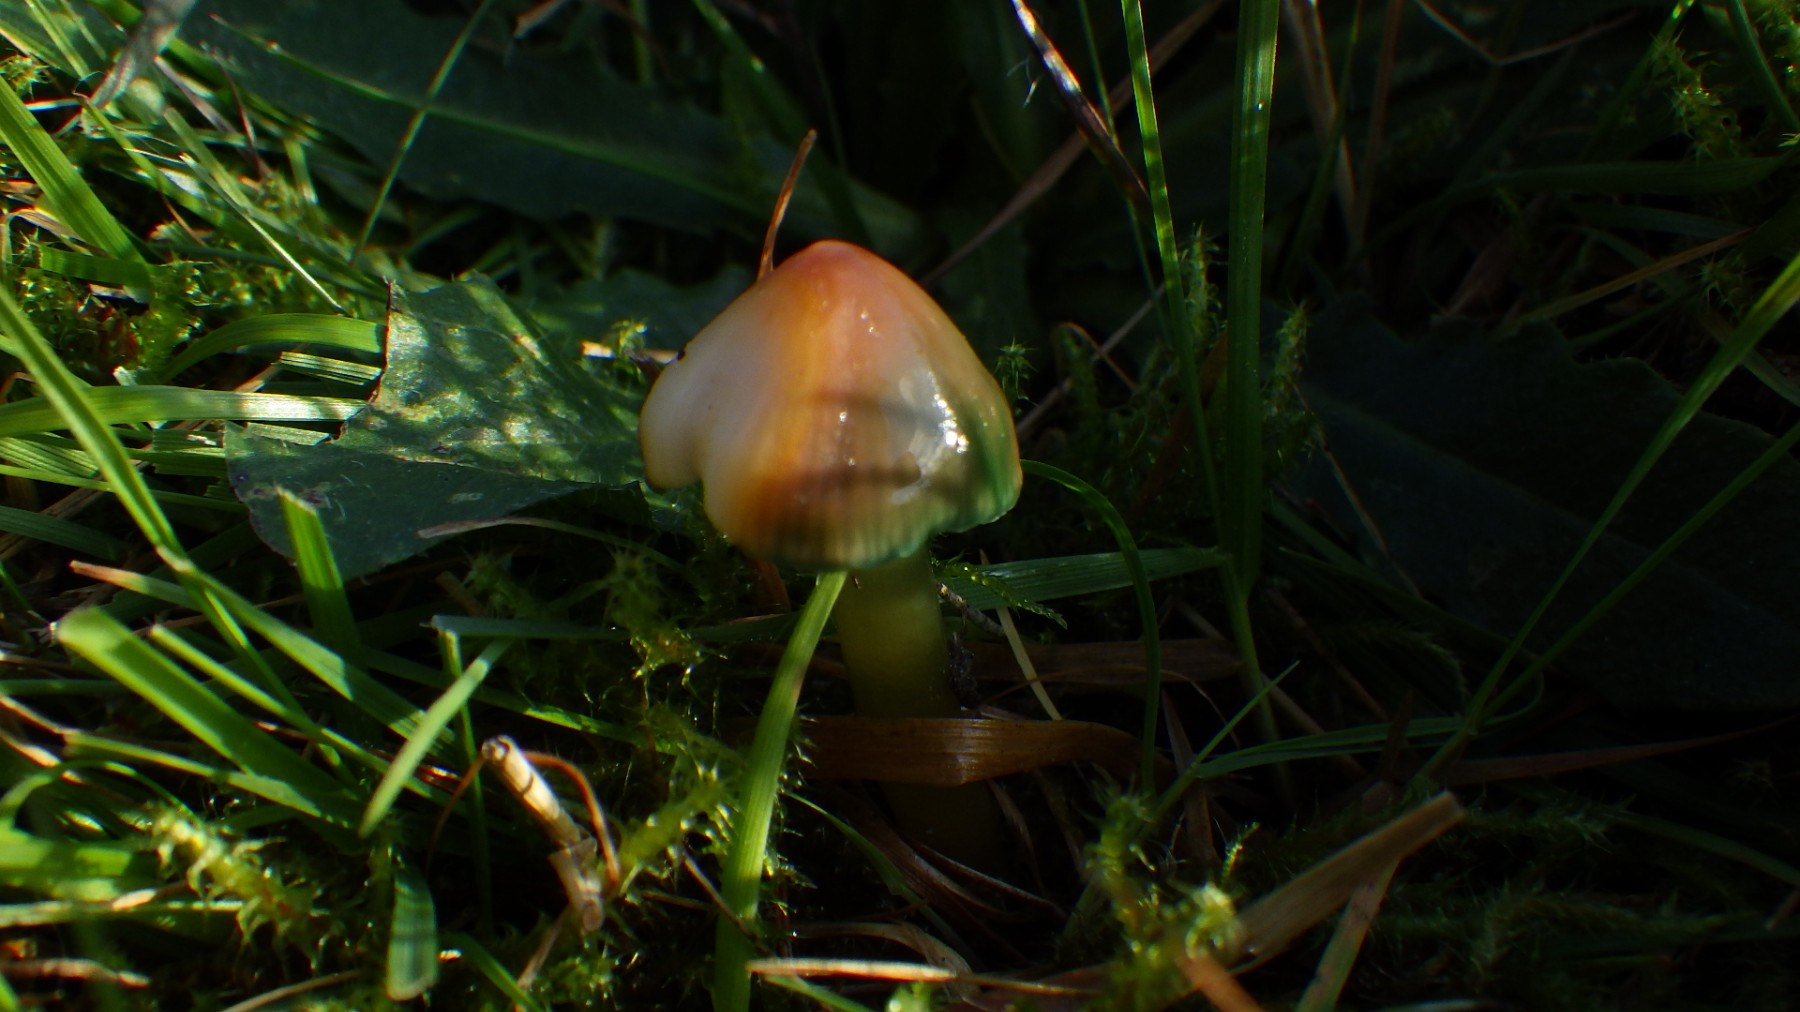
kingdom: Fungi
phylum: Basidiomycota
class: Agaricomycetes
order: Agaricales
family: Hygrophoraceae
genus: Gliophorus
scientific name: Gliophorus psittacinus
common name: papegøje-vokshat
